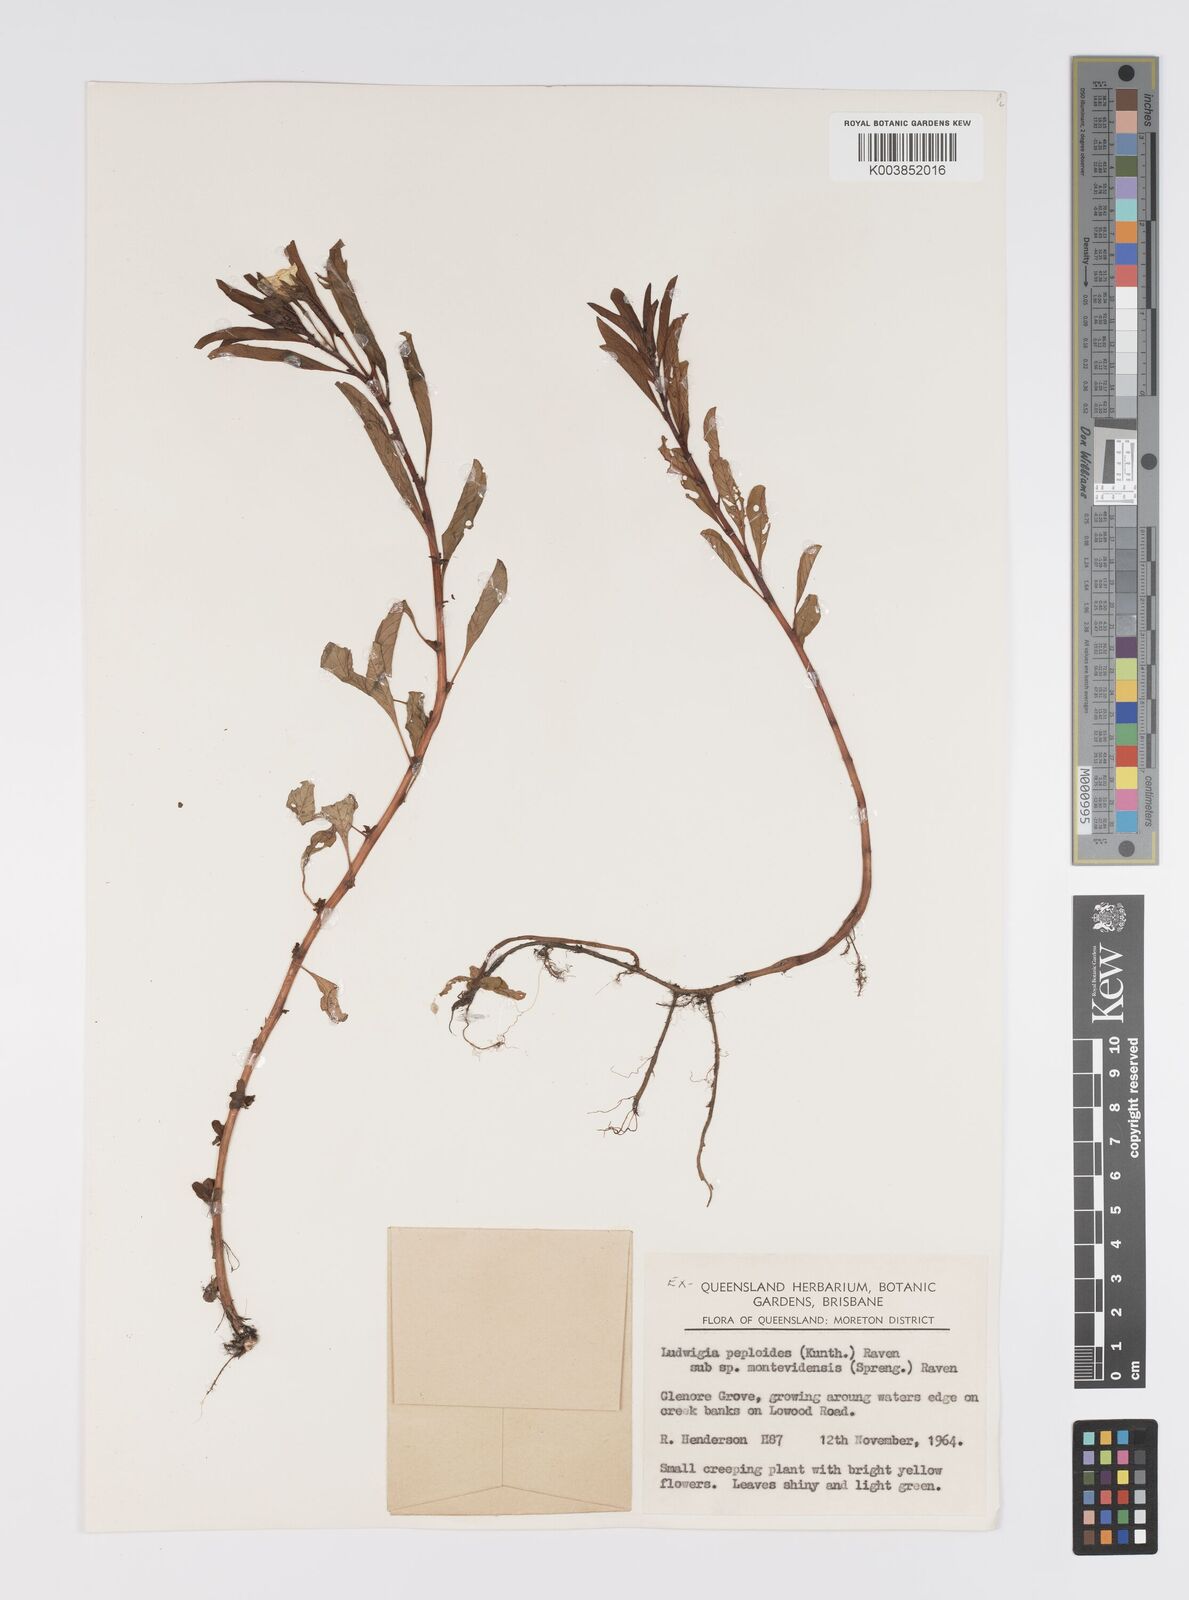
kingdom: Plantae
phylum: Tracheophyta
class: Magnoliopsida
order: Myrtales
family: Onagraceae
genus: Ludwigia
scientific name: Ludwigia peploides
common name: Floating primrose-willow
